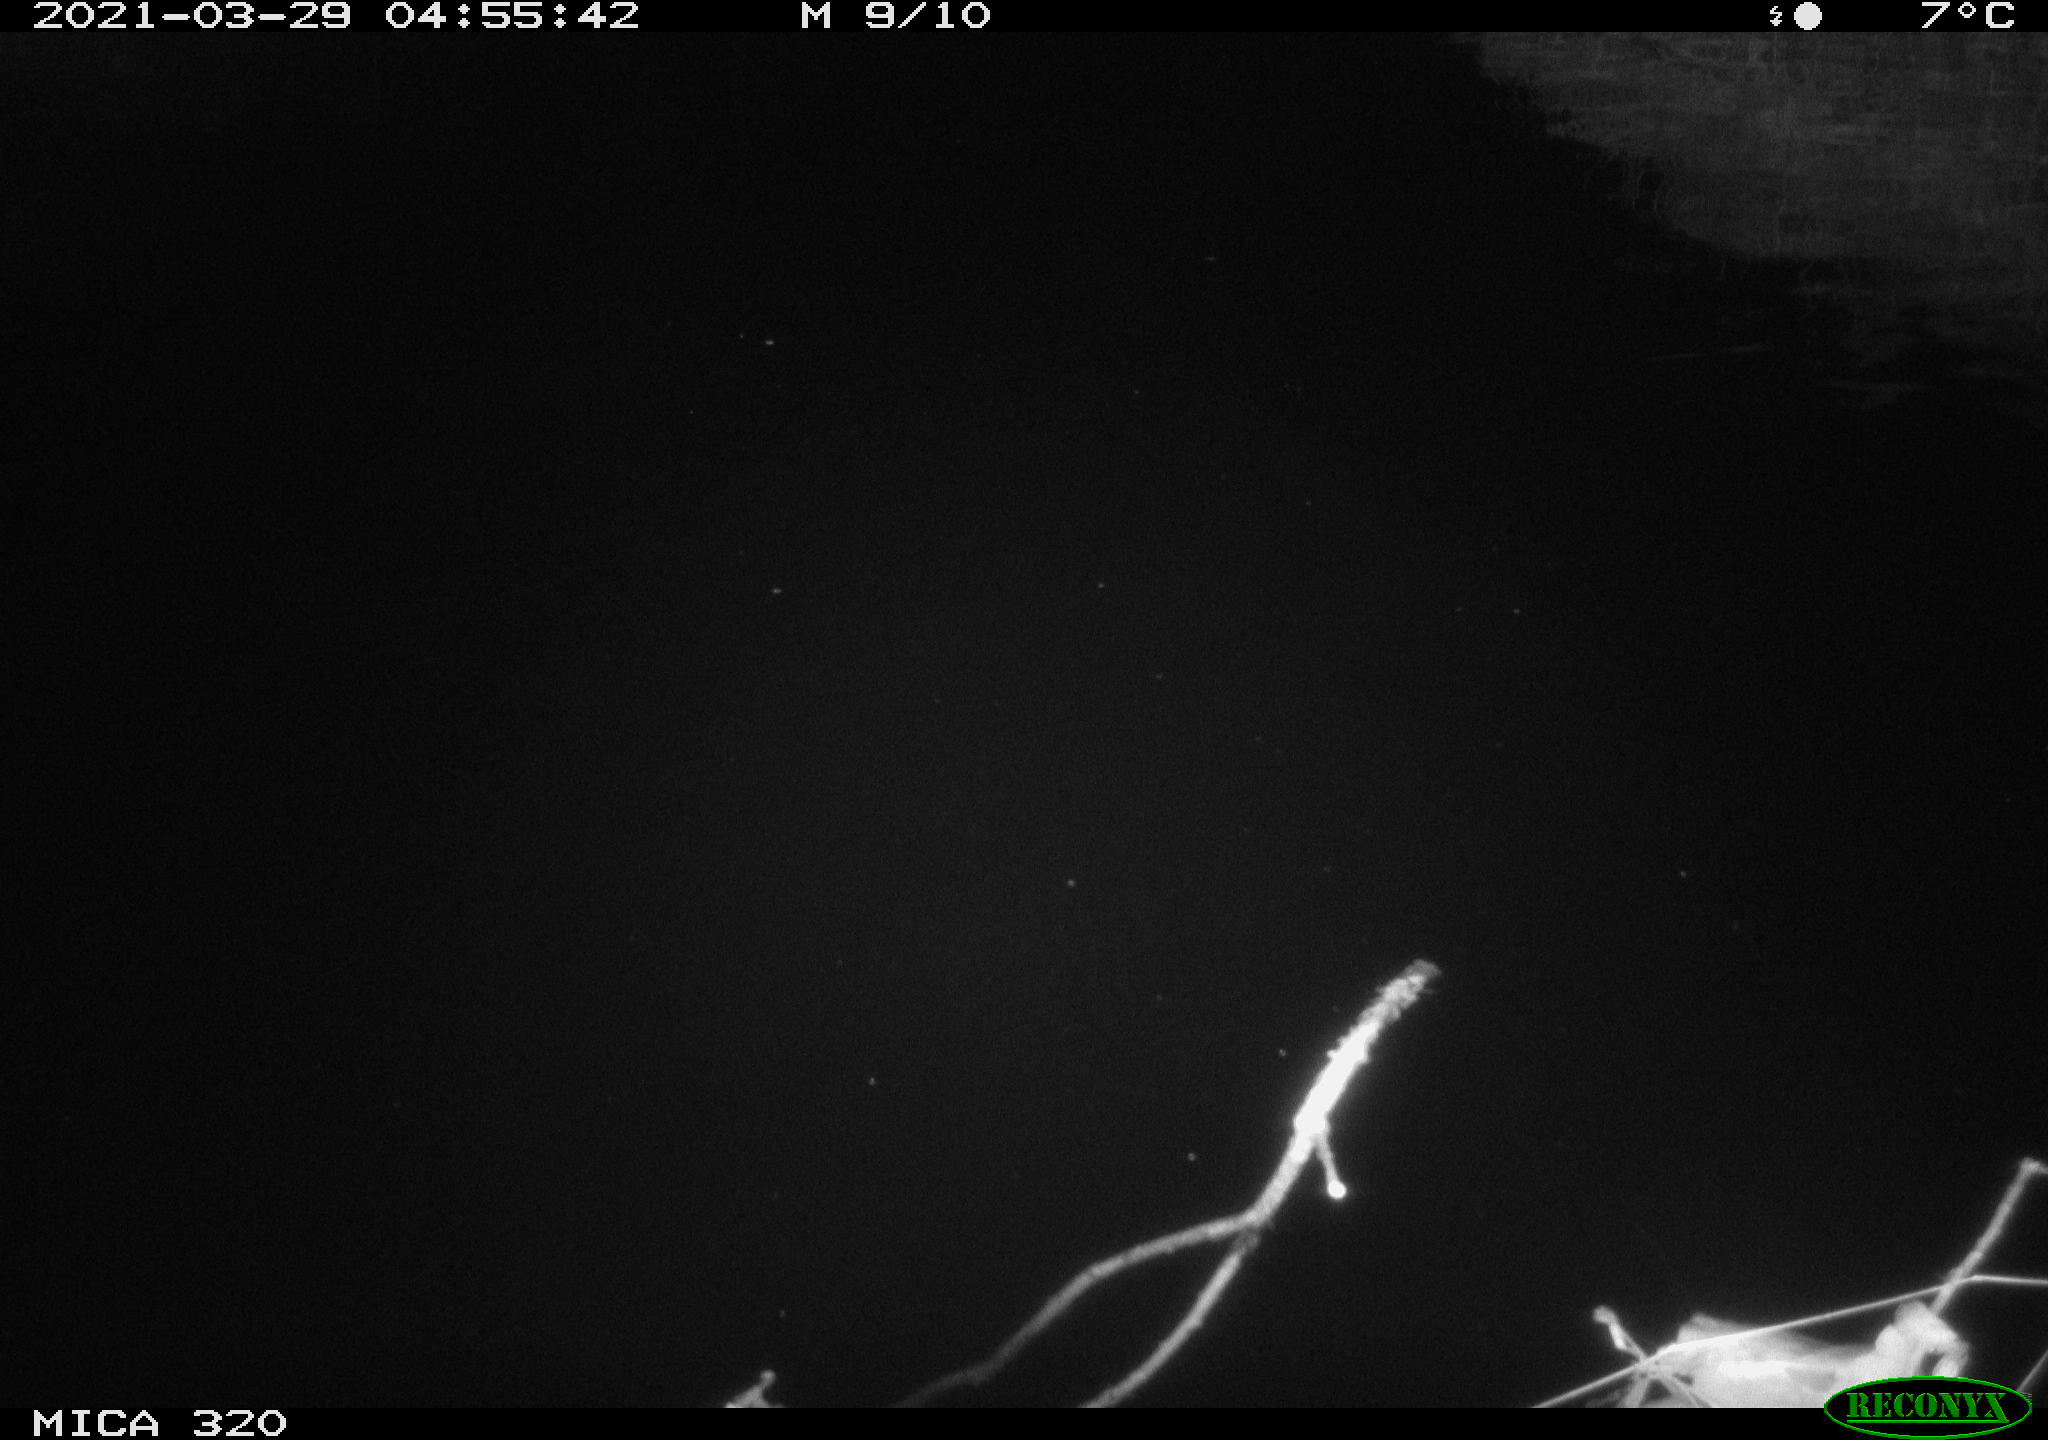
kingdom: Animalia
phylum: Chordata
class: Aves
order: Anseriformes
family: Anatidae
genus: Anas
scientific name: Anas platyrhynchos
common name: Mallard
